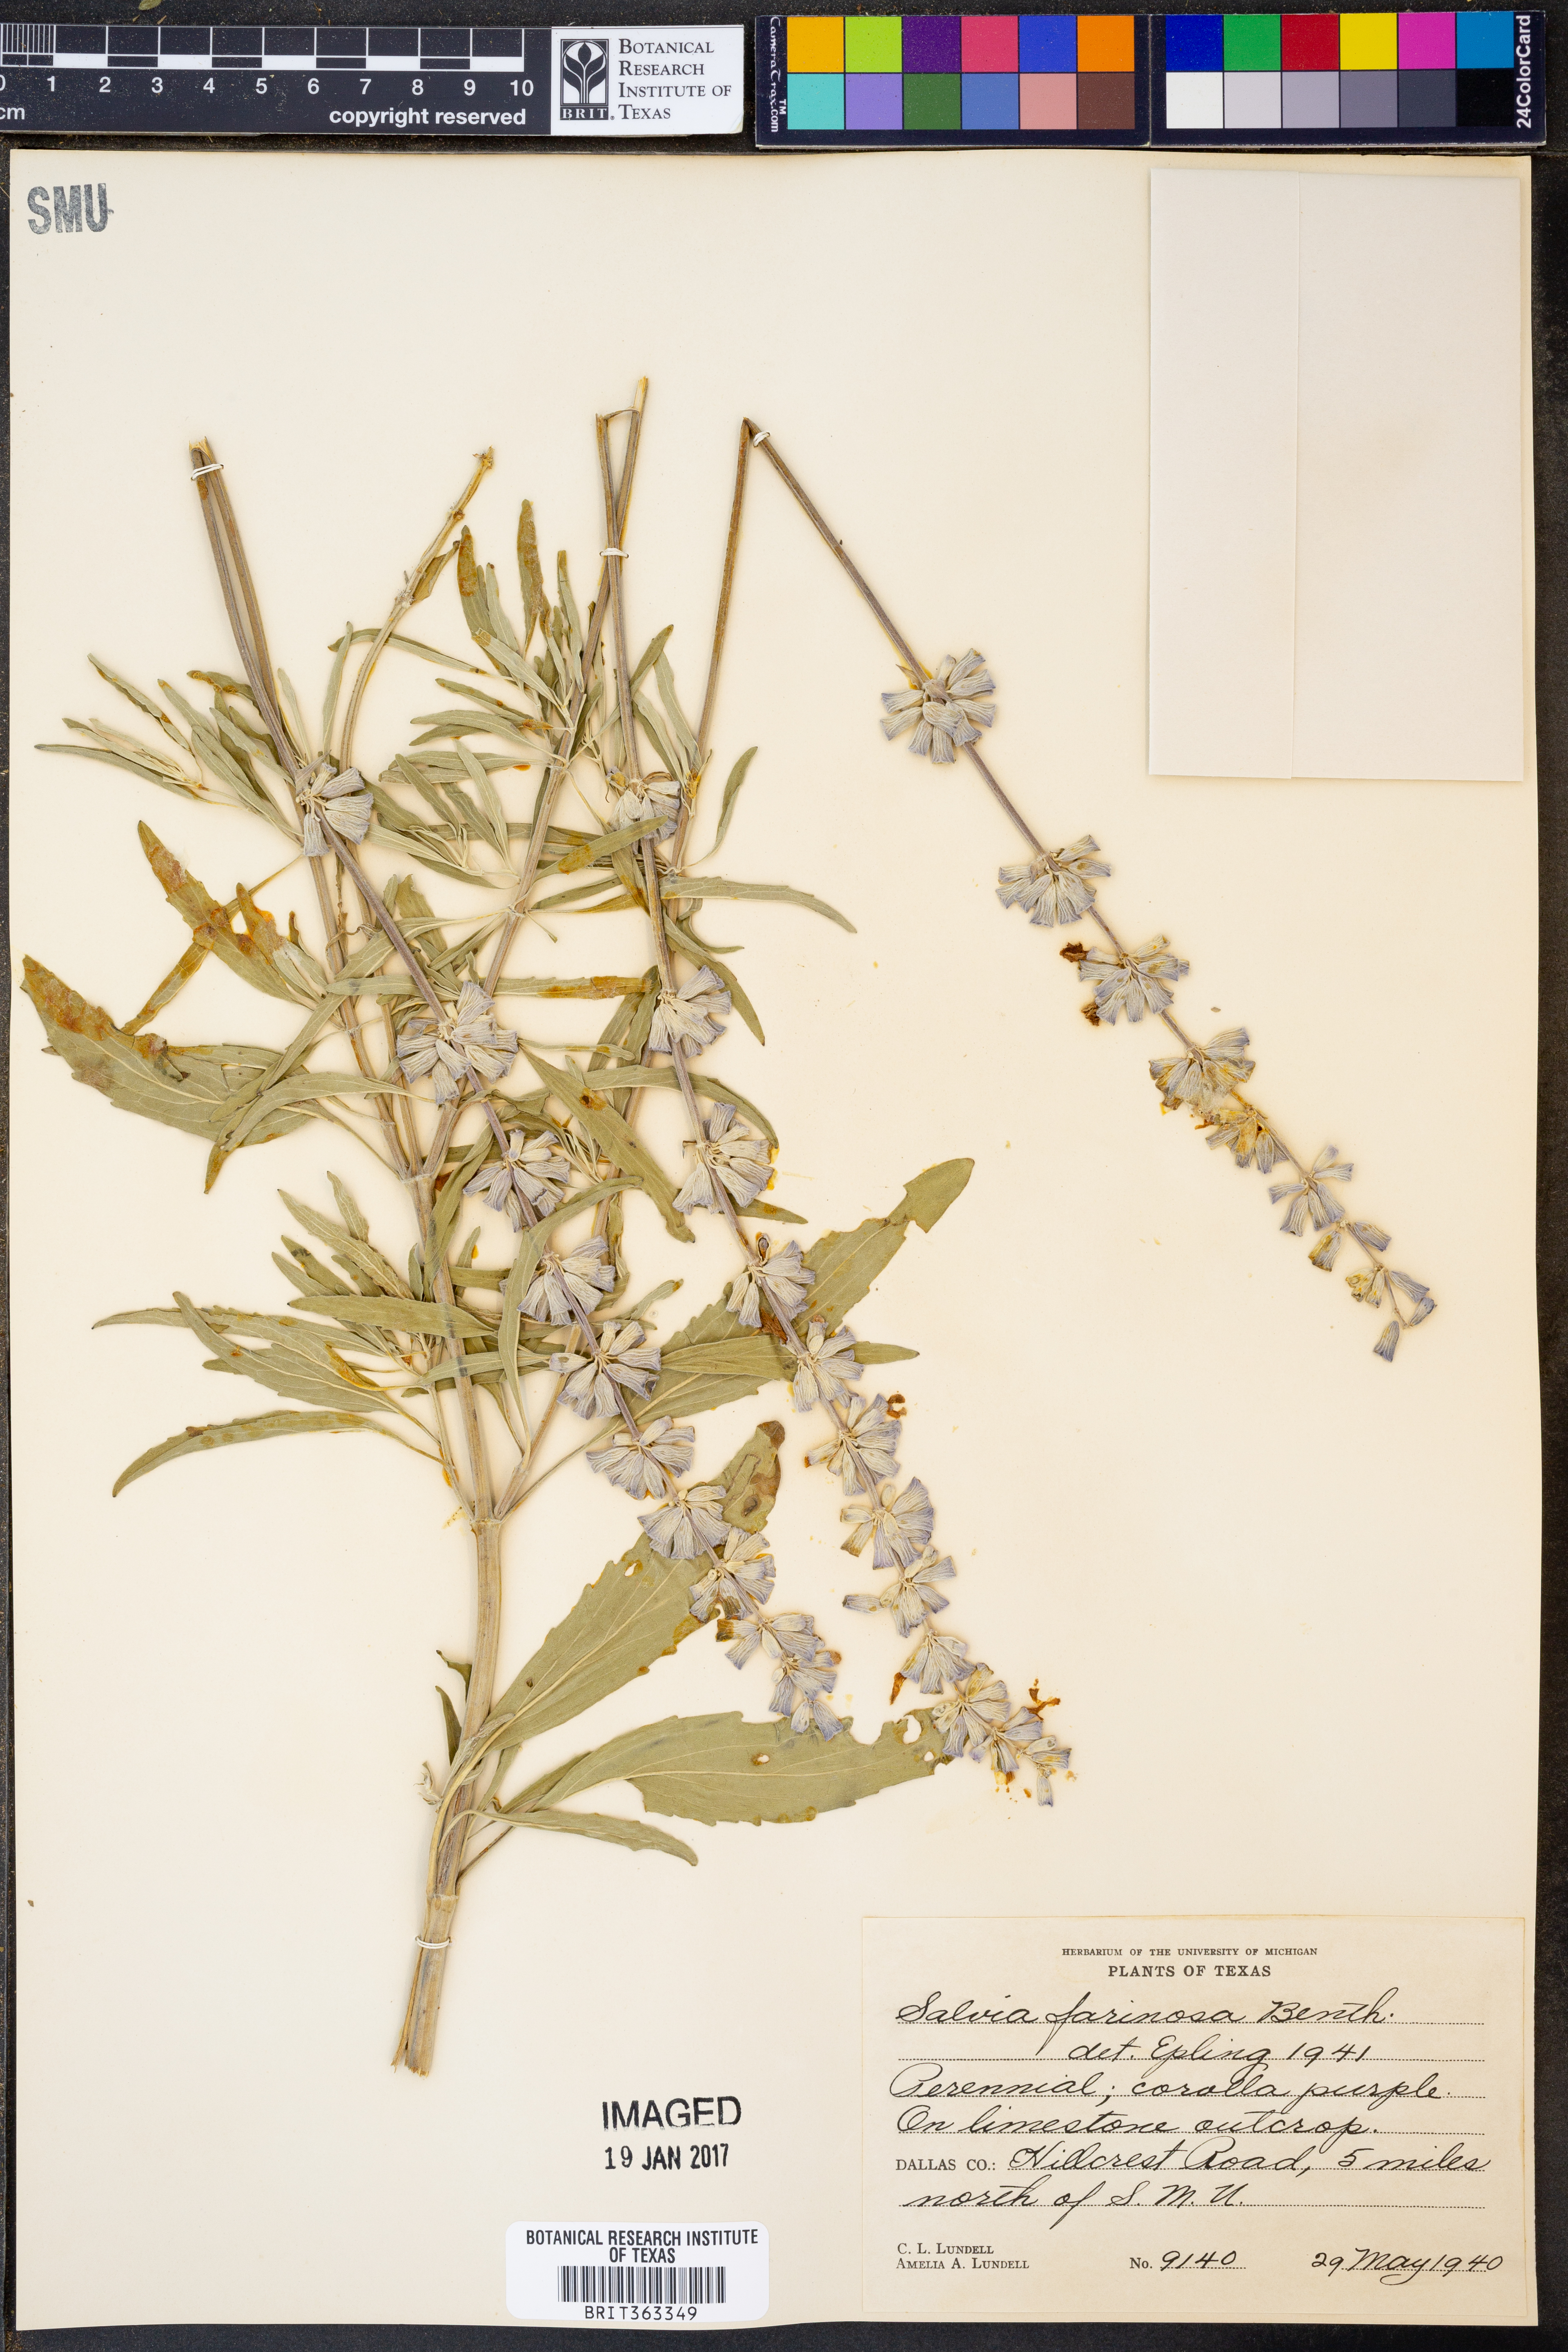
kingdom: Plantae
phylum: Tracheophyta
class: Magnoliopsida
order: Lamiales
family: Lamiaceae
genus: Salvia
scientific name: Salvia farinacea
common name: Mealy sage
